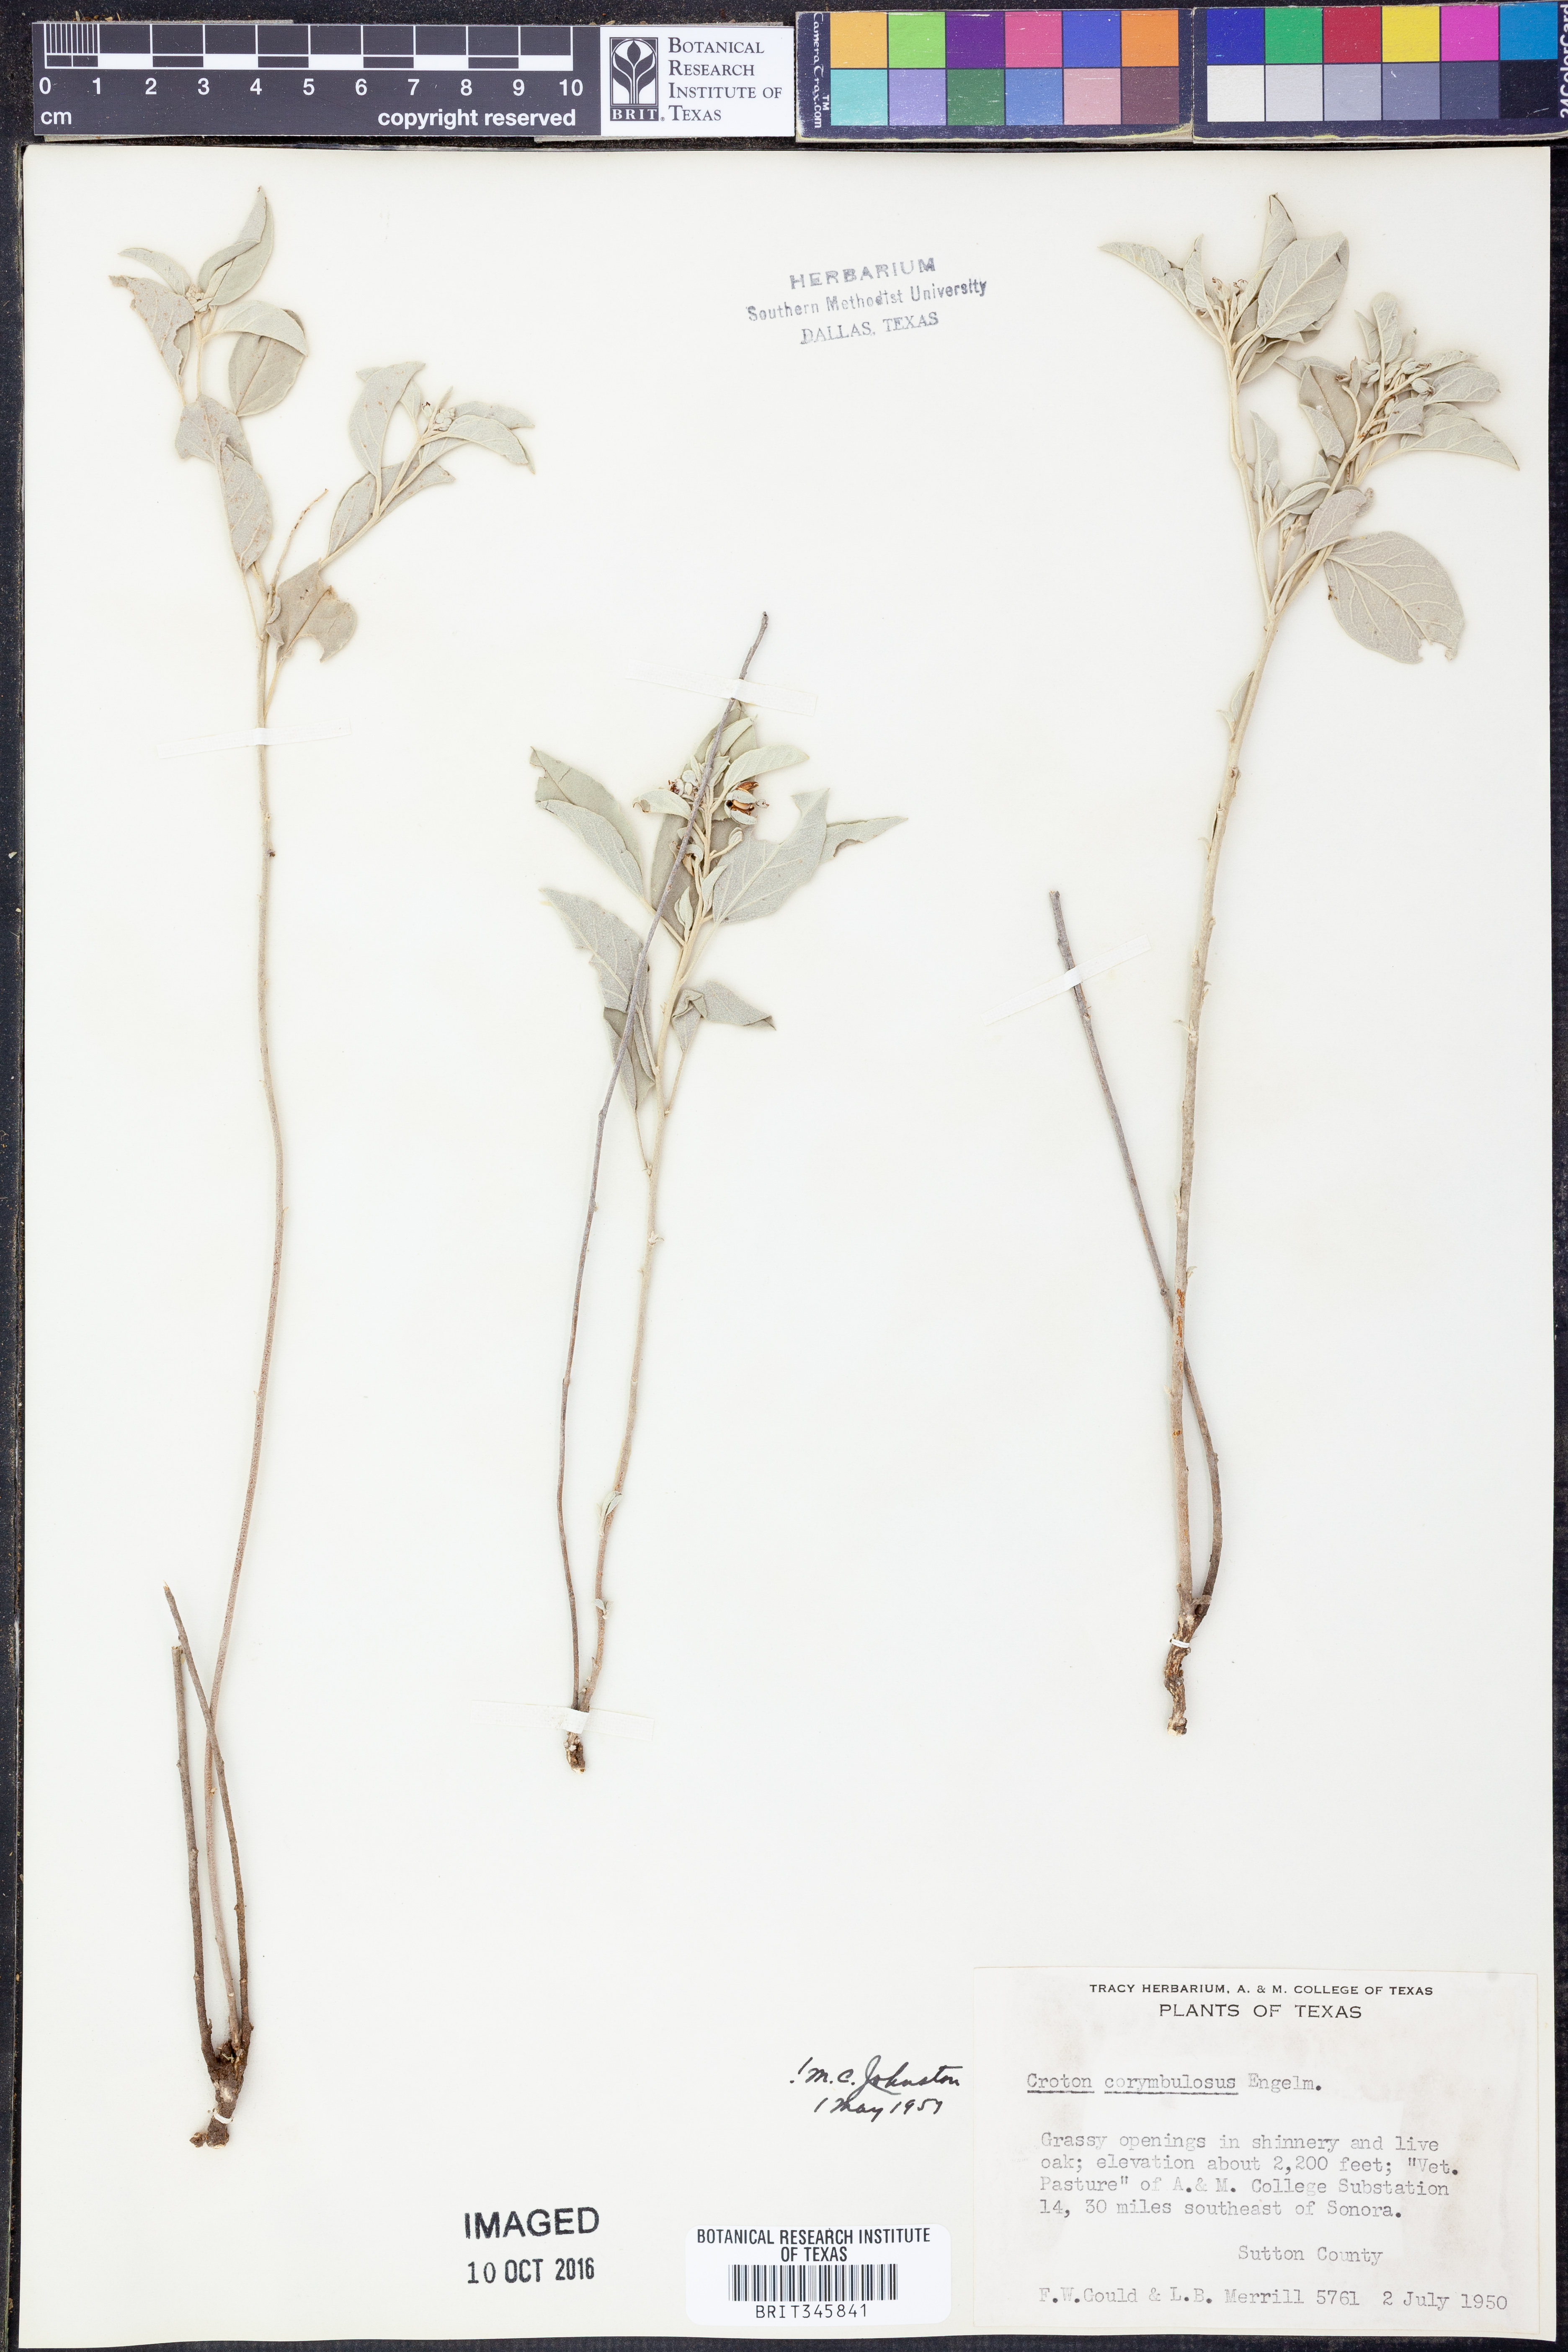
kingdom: Plantae
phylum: Tracheophyta
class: Magnoliopsida
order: Malpighiales
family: Euphorbiaceae
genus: Croton
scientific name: Croton pottsii
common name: Leatherweed
